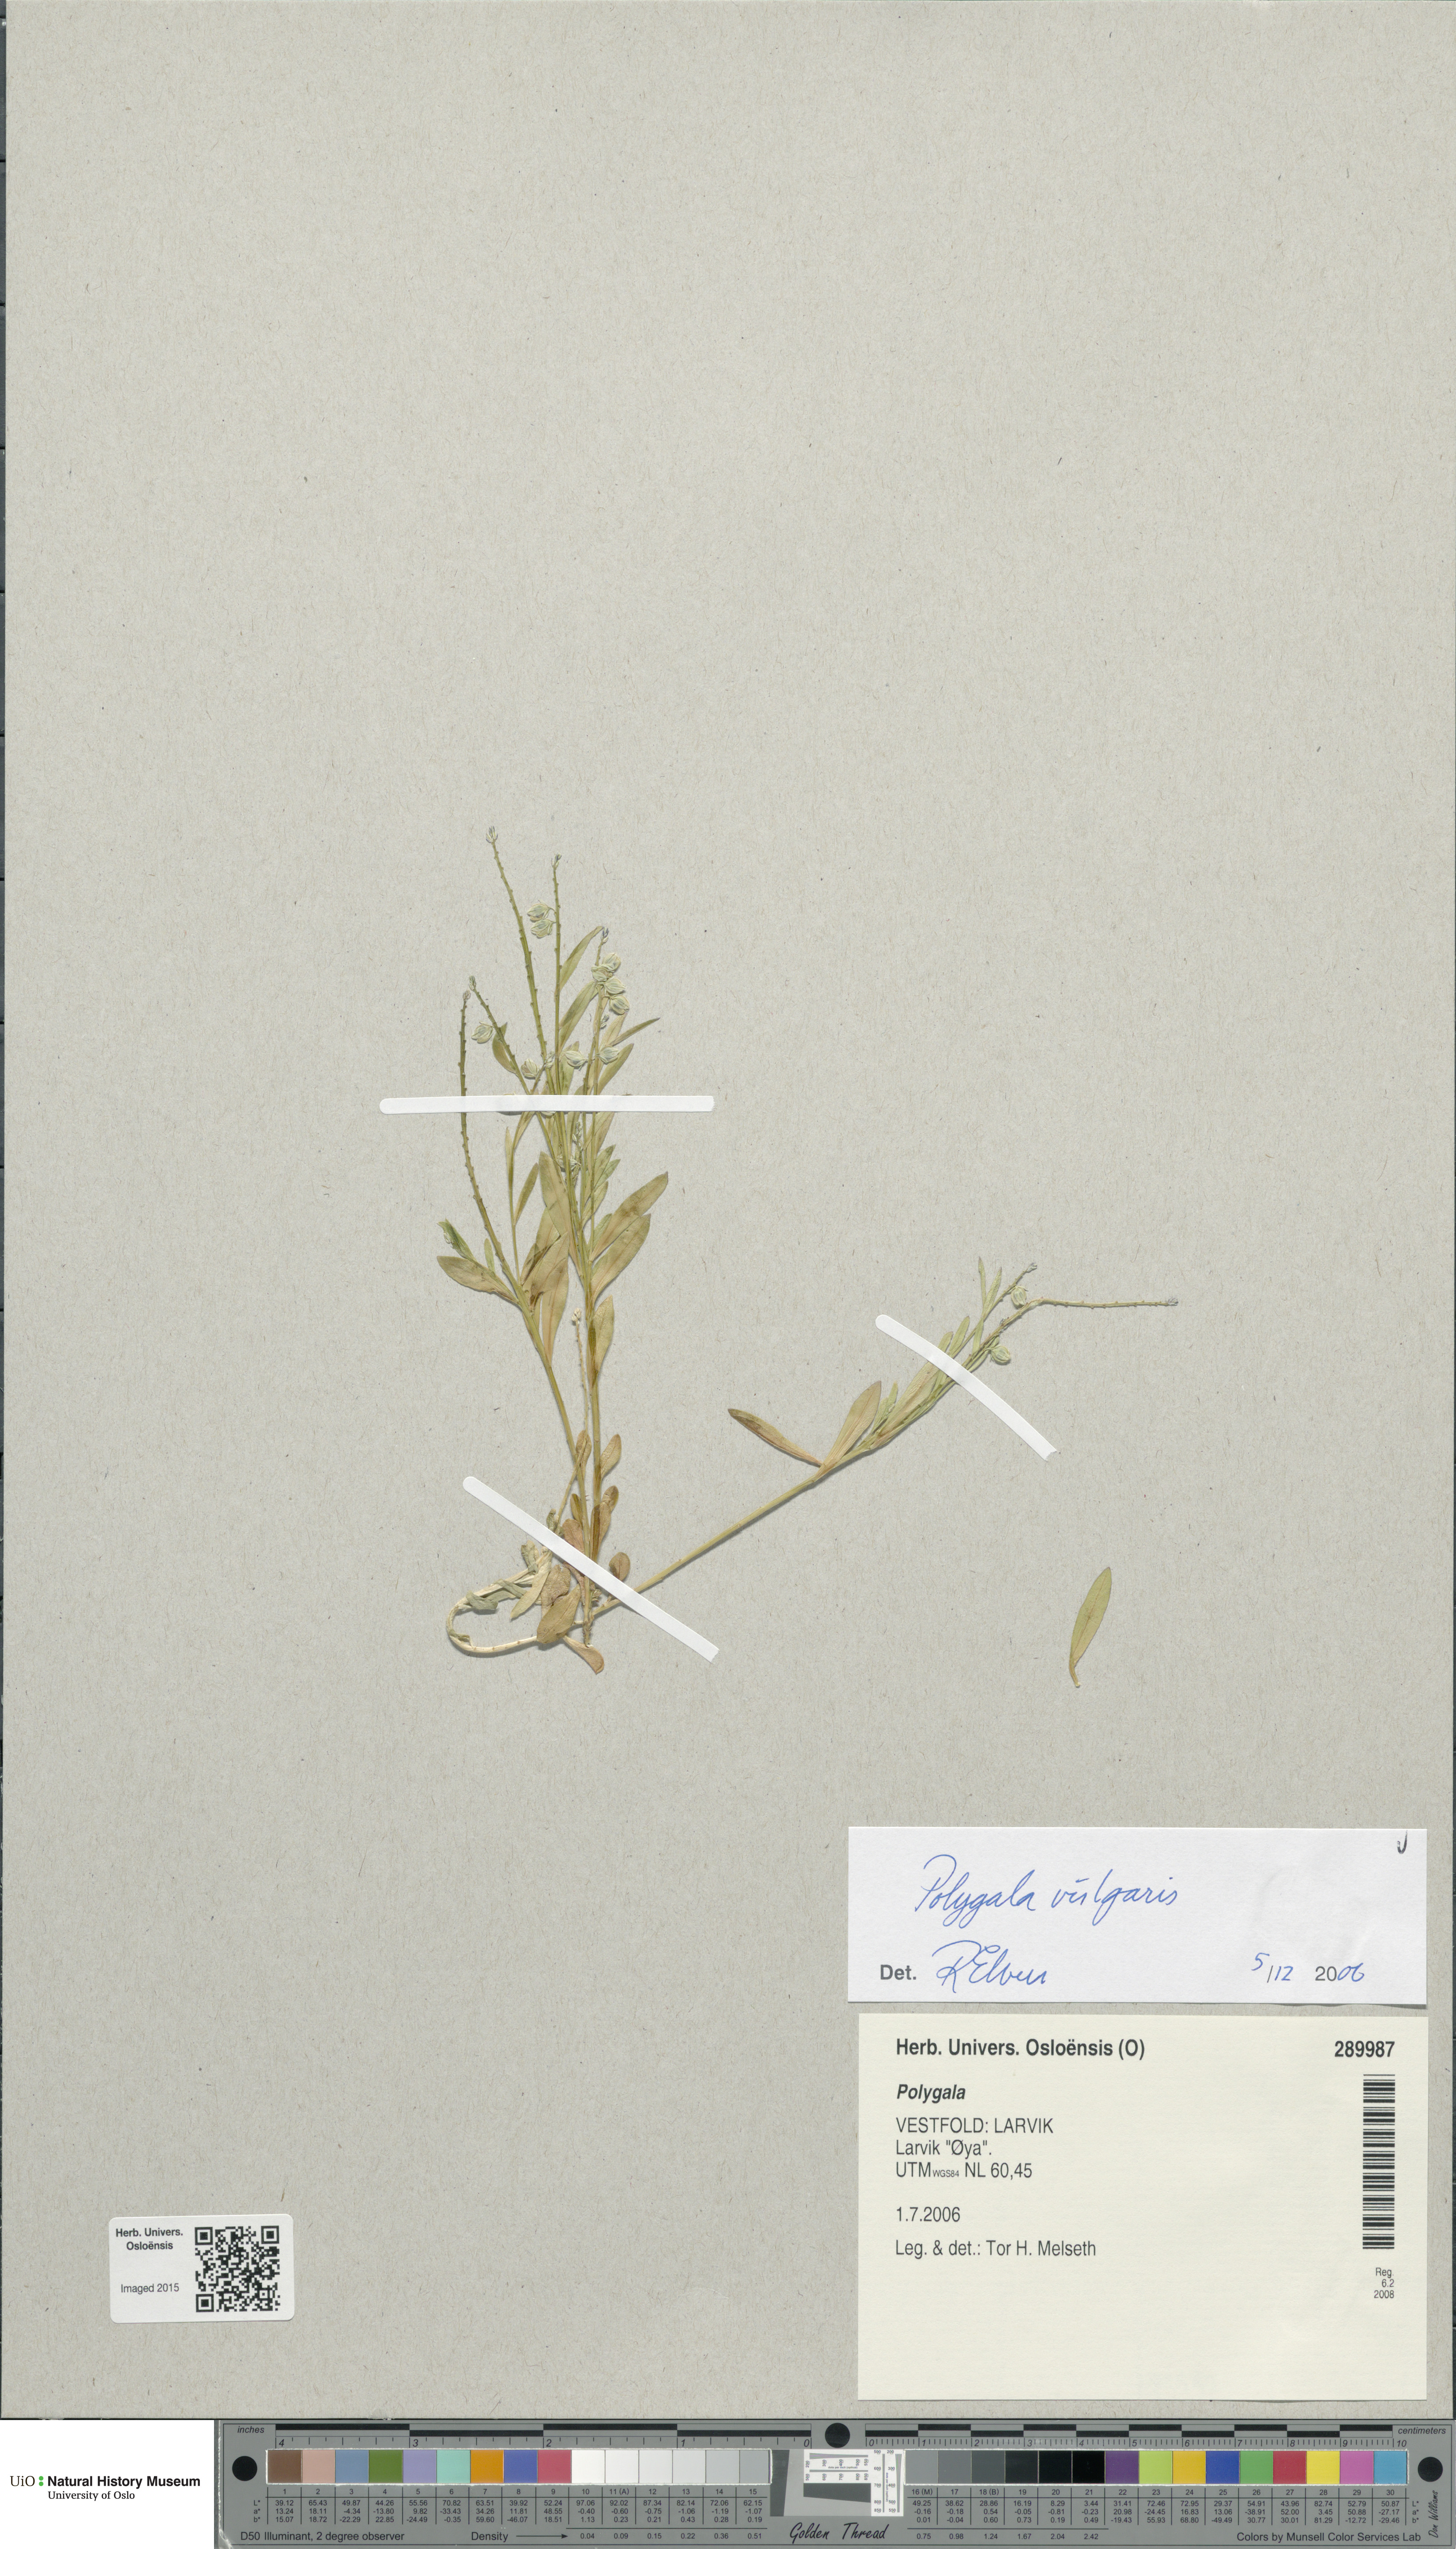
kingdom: Plantae
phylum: Tracheophyta
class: Magnoliopsida
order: Fabales
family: Polygalaceae
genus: Polygala
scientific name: Polygala vulgaris
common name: Common milkwort
